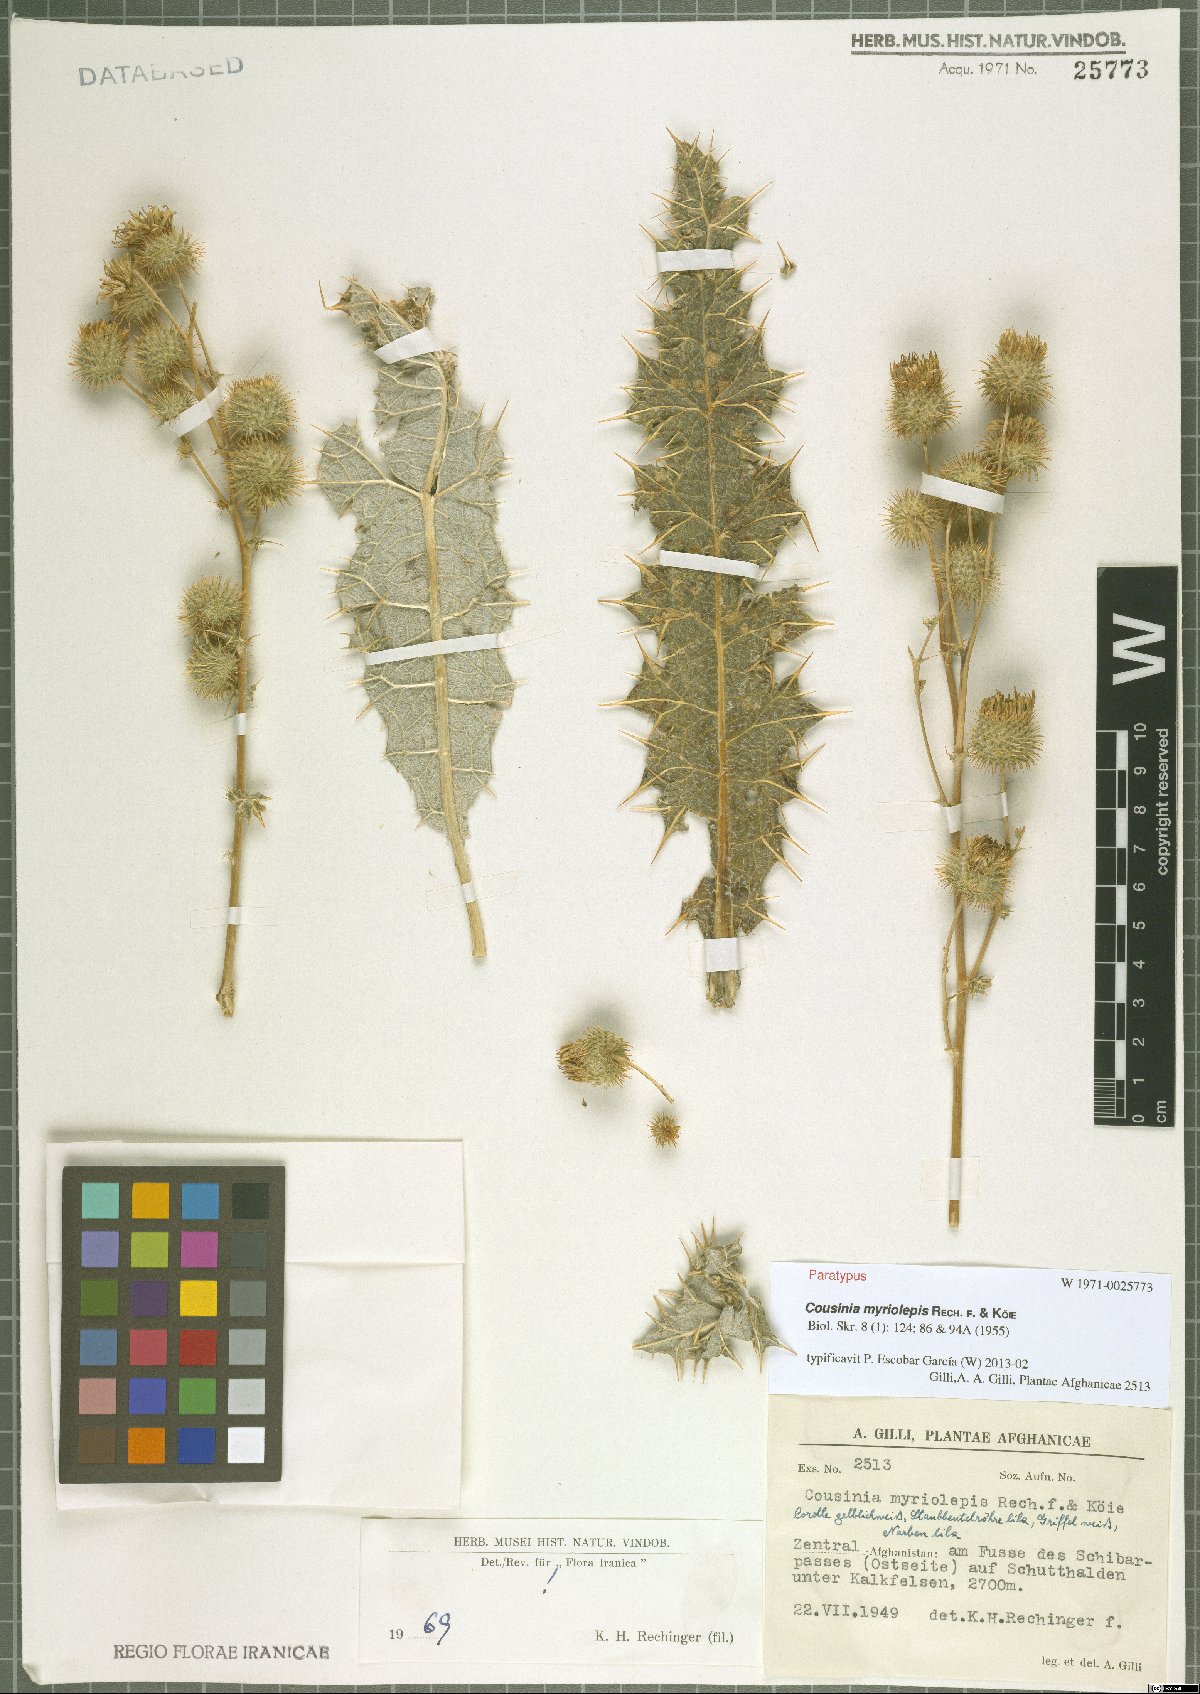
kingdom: Plantae
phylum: Tracheophyta
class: Magnoliopsida
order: Asterales
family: Asteraceae
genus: Cousinia
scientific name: Cousinia myriolepis
